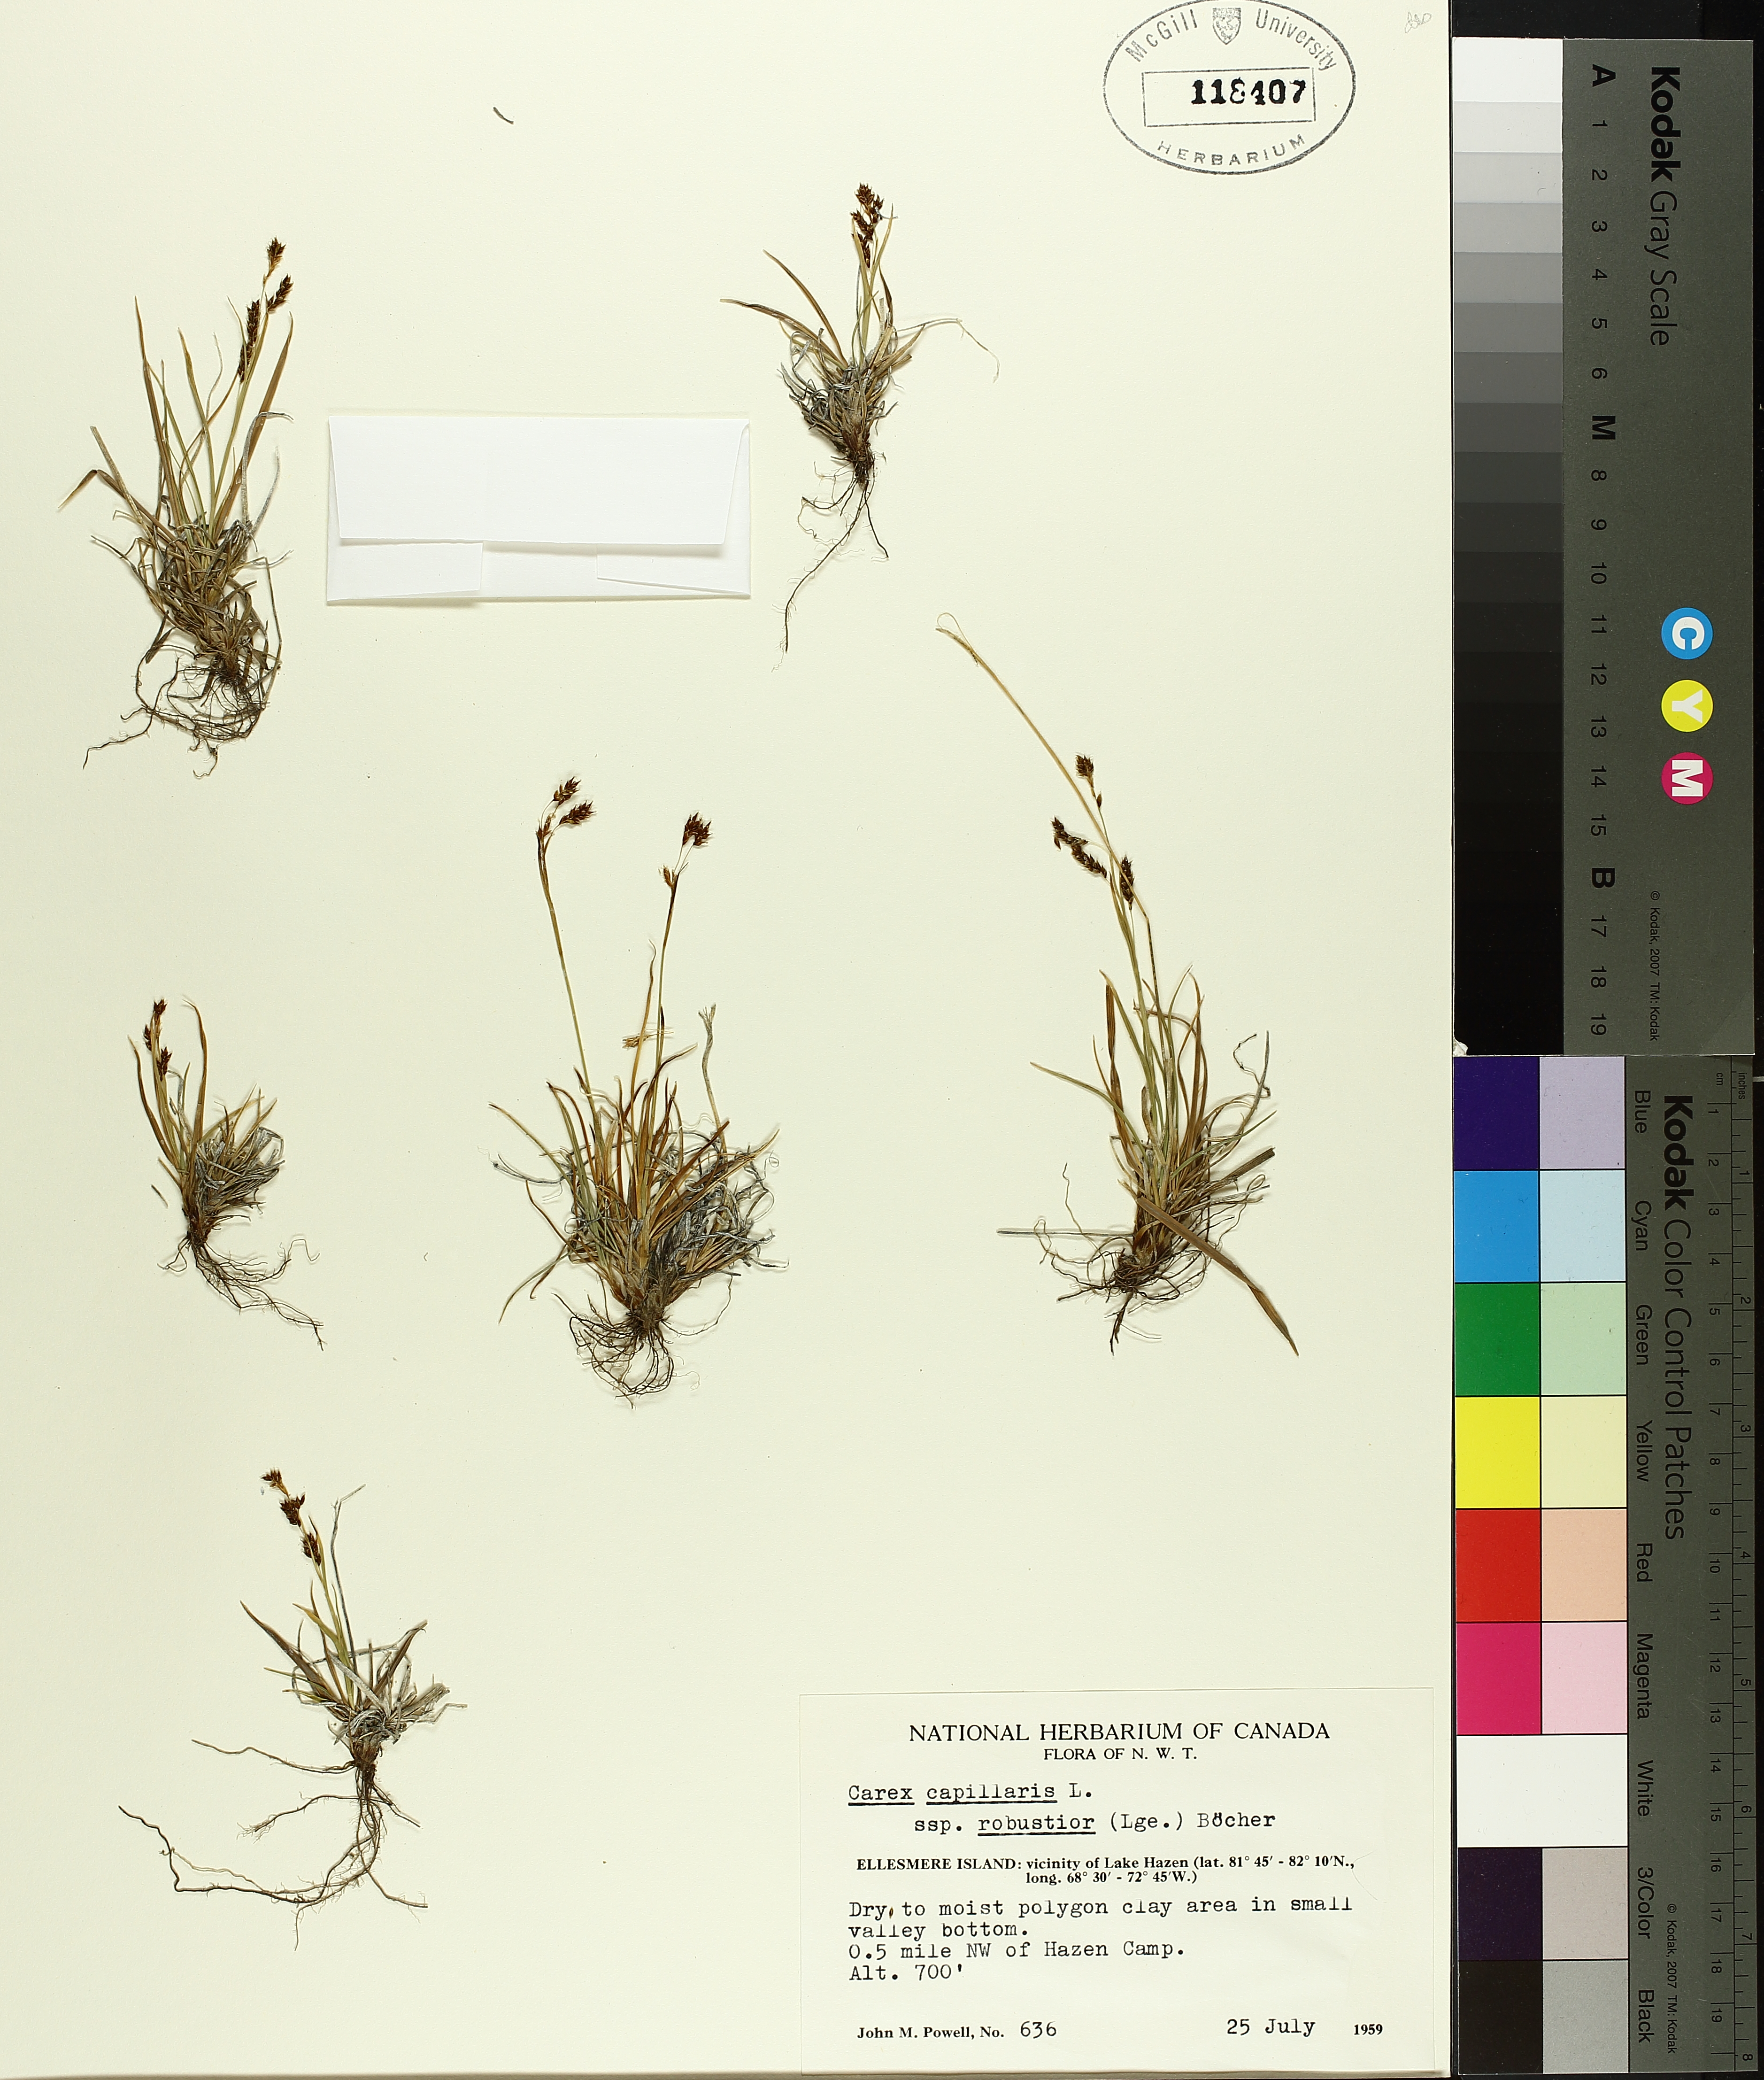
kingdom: Plantae
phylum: Tracheophyta
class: Liliopsida
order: Poales
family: Cyperaceae
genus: Carex
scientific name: Carex boecheriana
